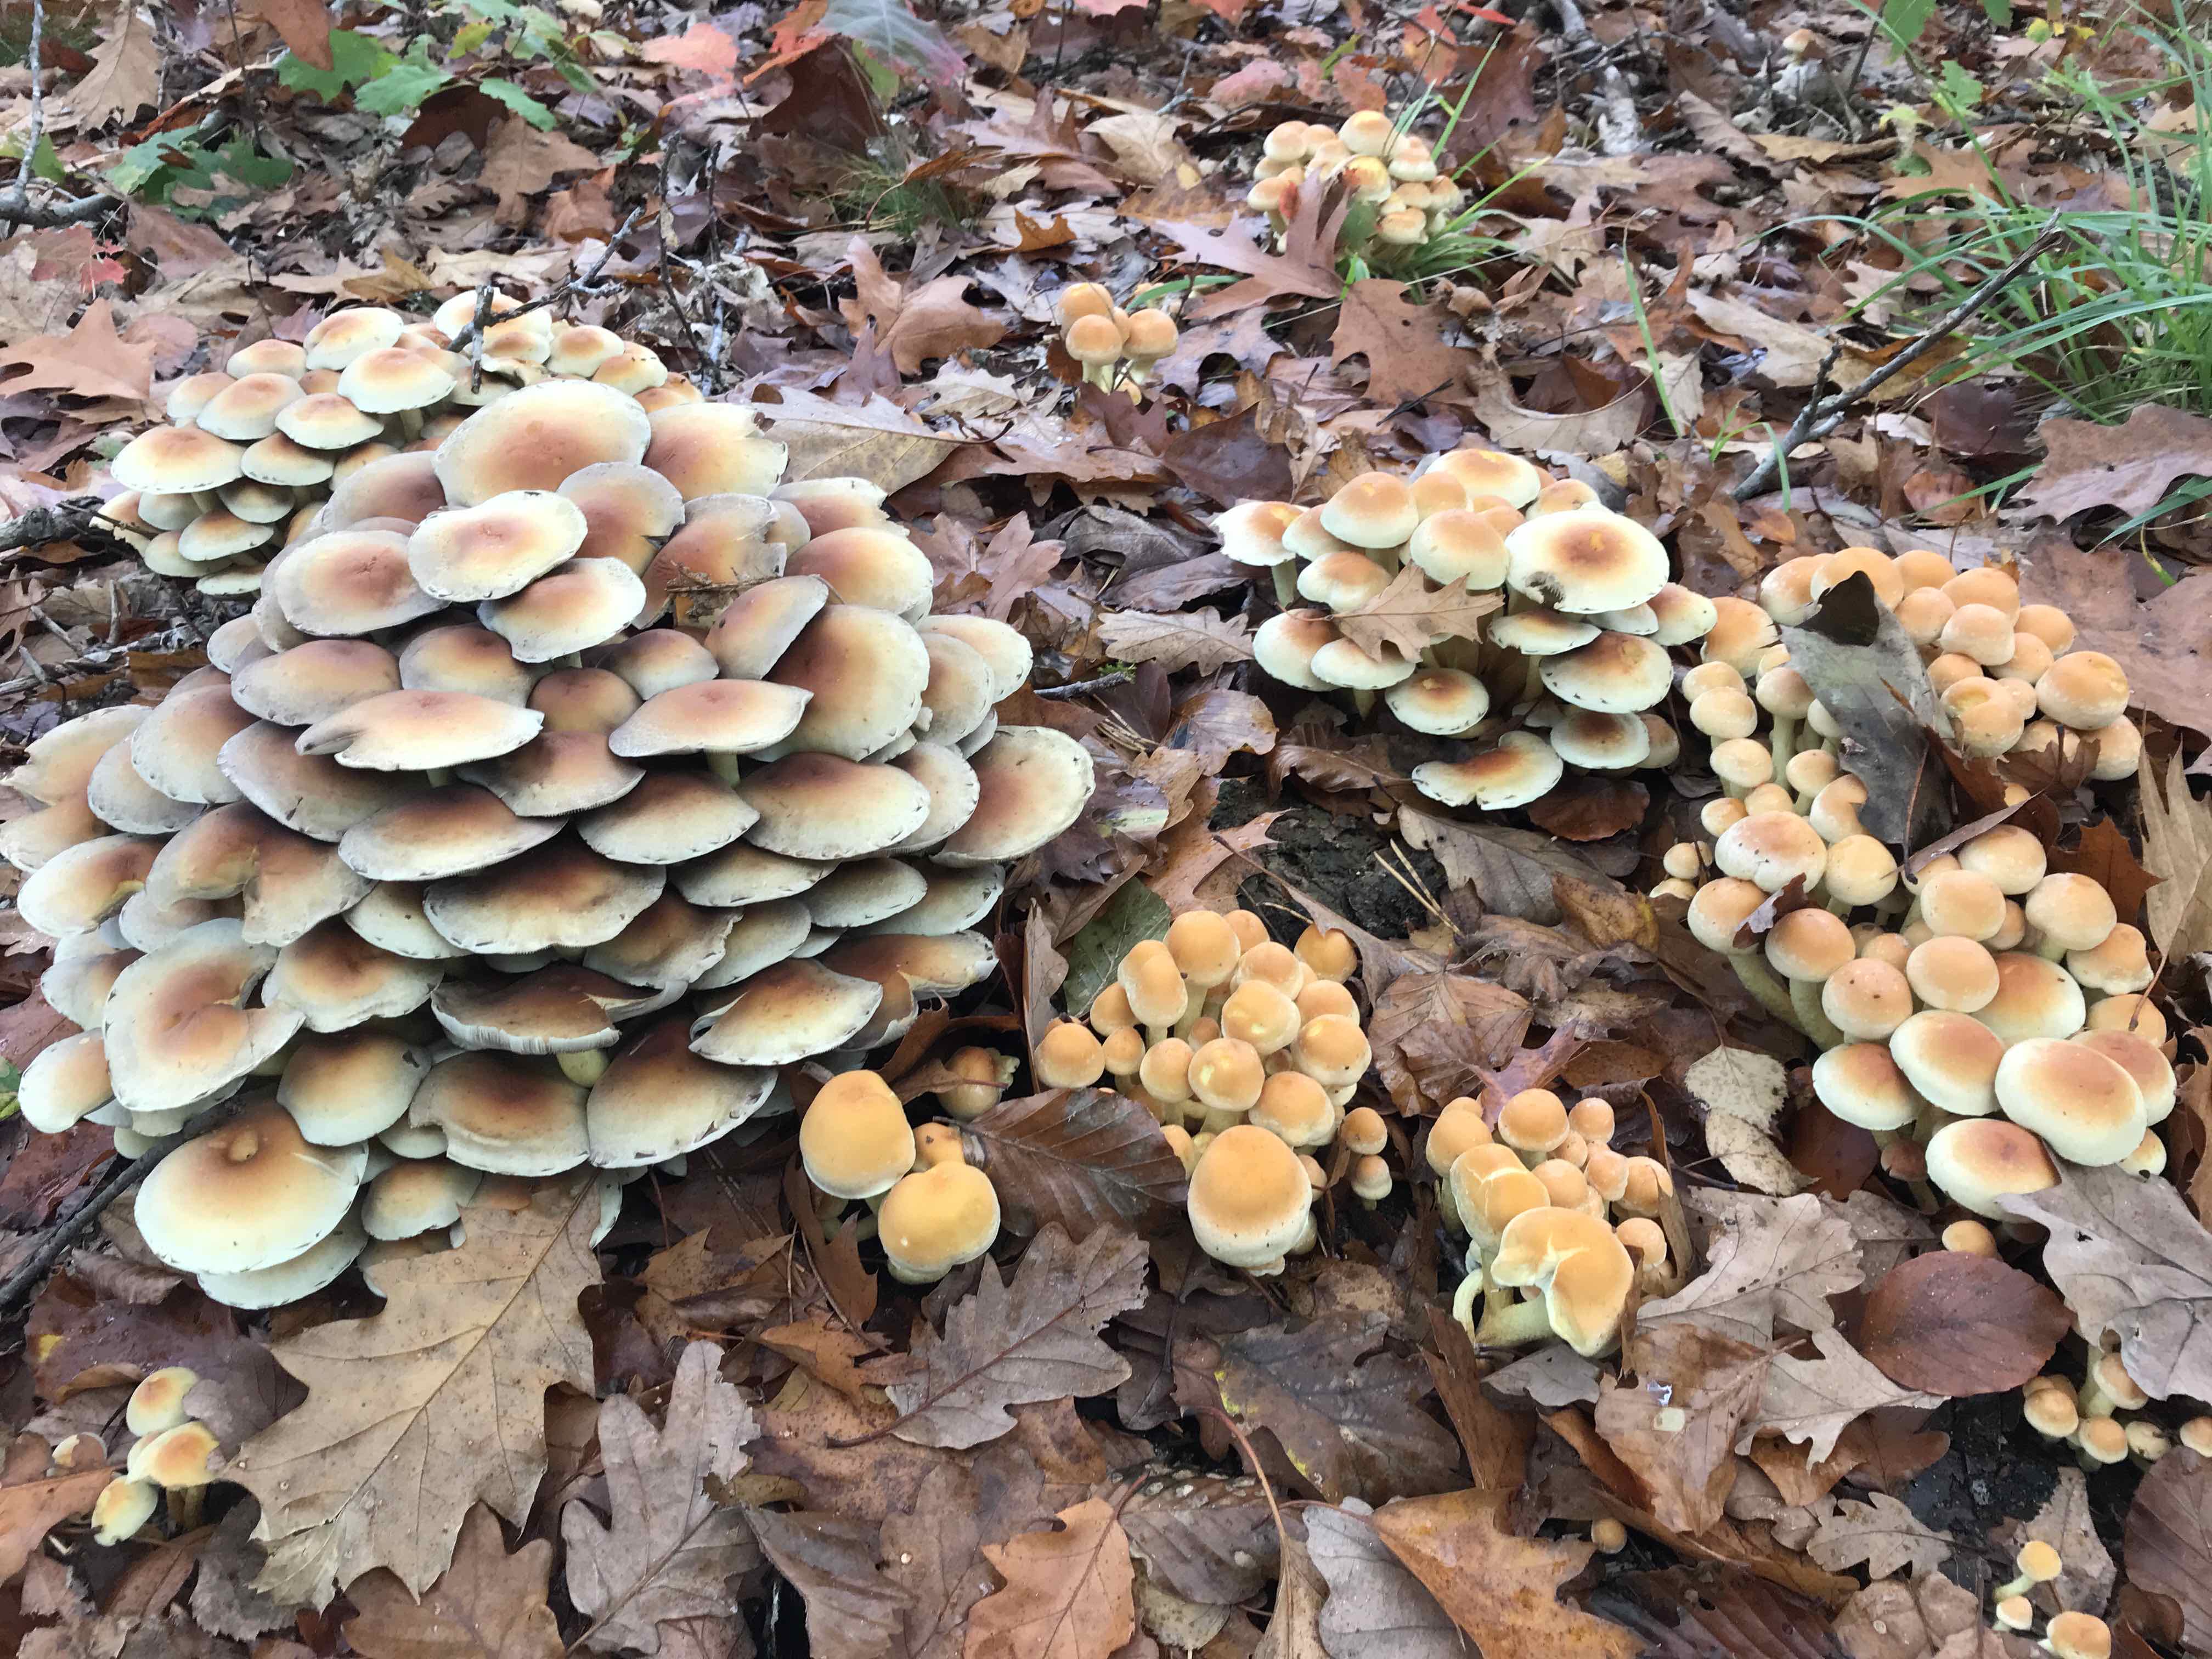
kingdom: Fungi
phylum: Basidiomycota
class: Agaricomycetes
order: Agaricales
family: Strophariaceae
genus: Hypholoma
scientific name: Hypholoma fasciculare
